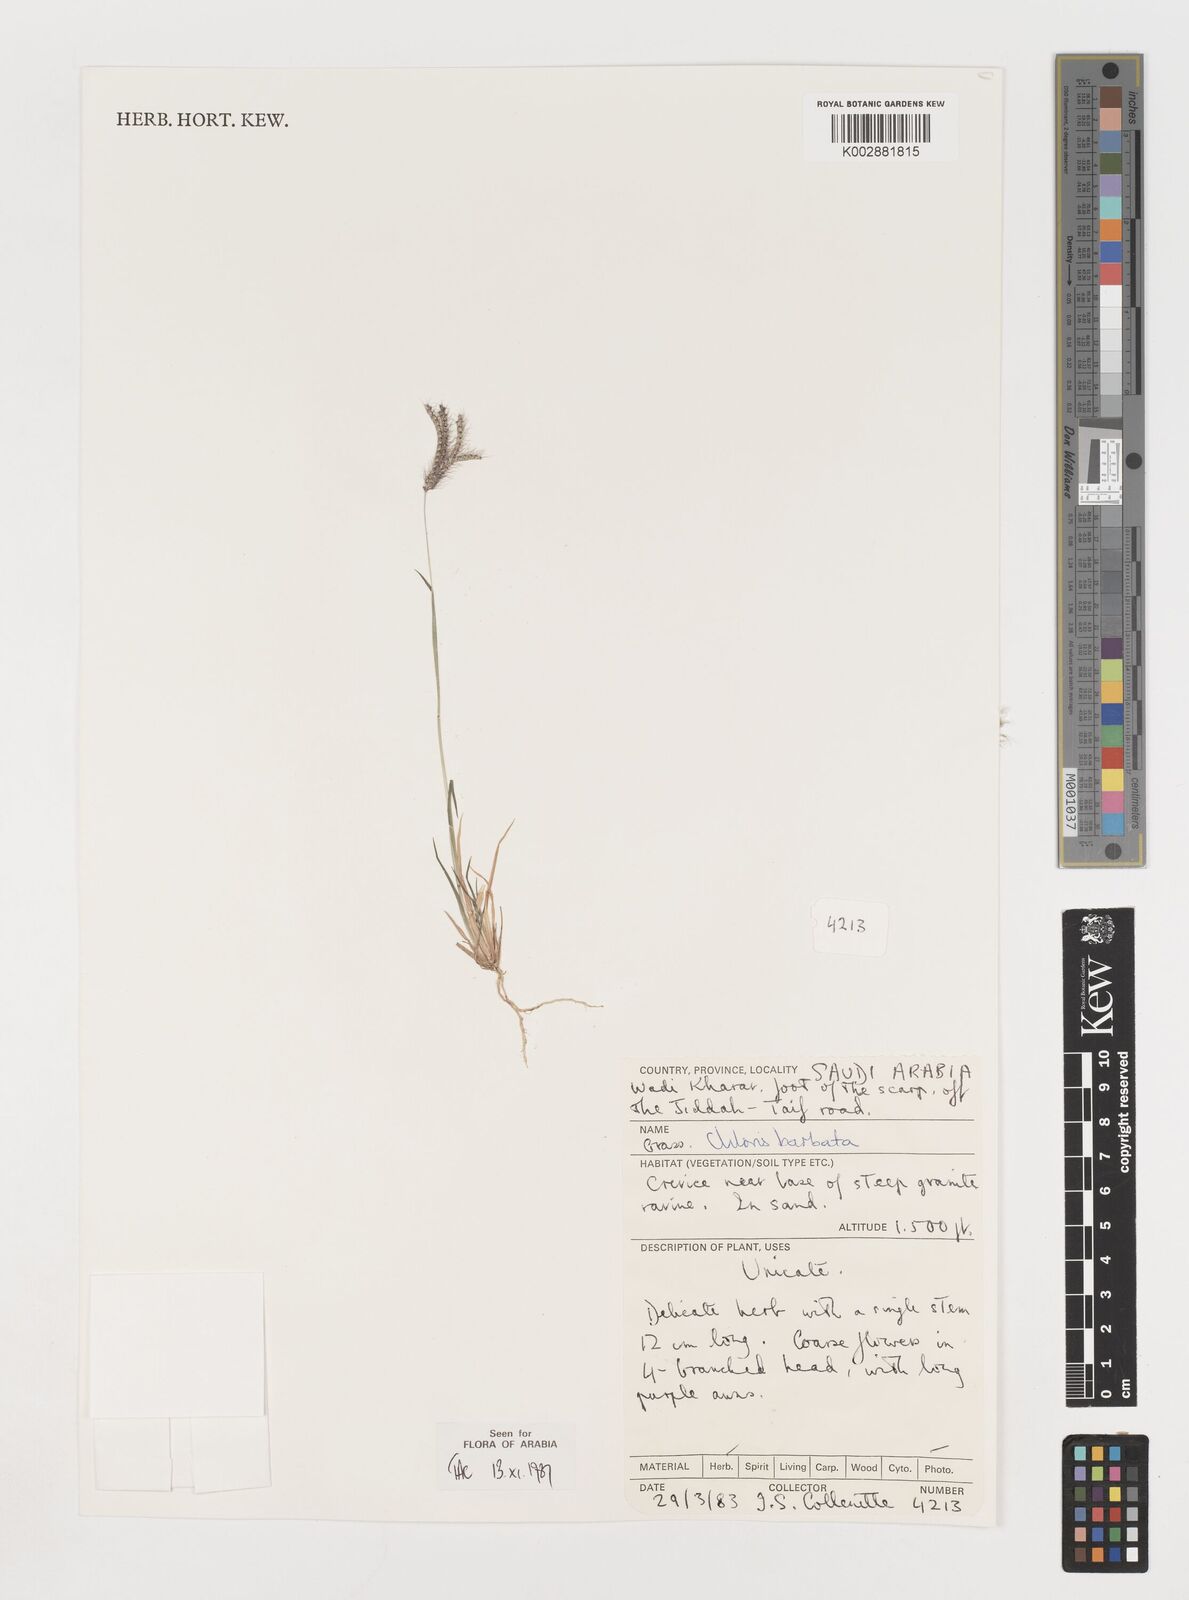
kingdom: Plantae
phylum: Tracheophyta
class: Liliopsida
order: Poales
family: Poaceae
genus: Chloris
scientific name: Chloris barbata
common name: Swollen fingergrass
